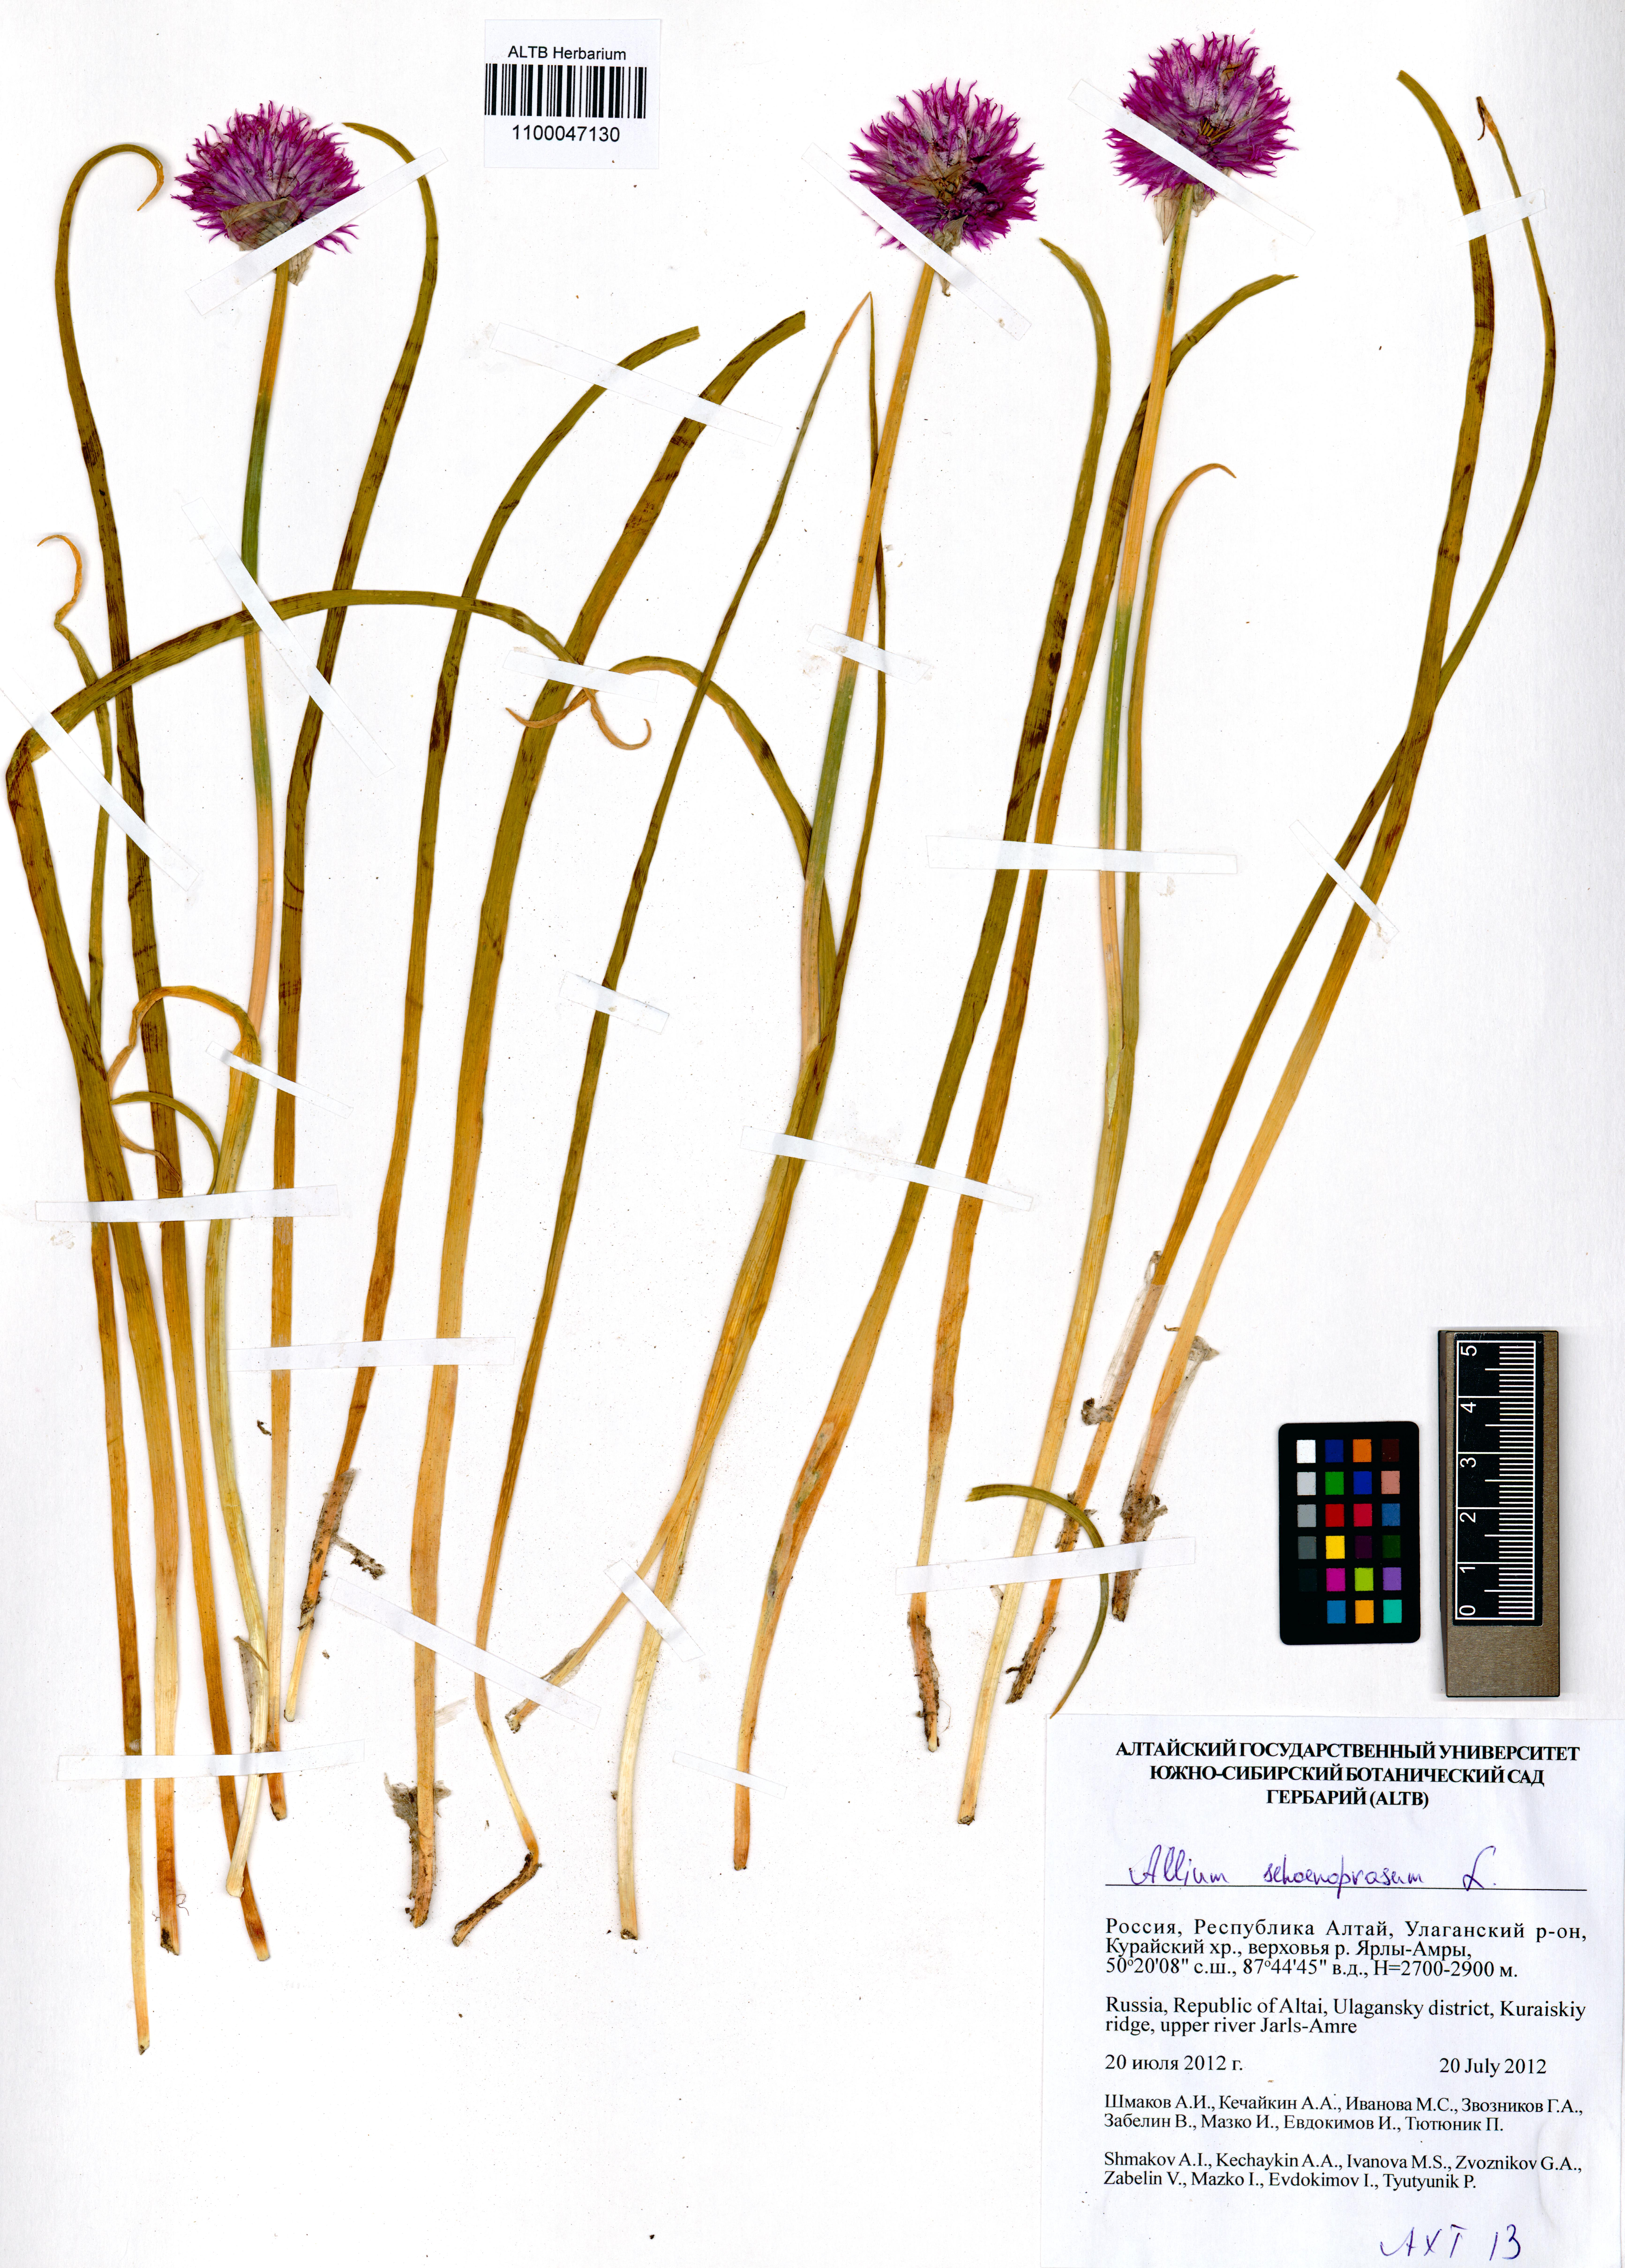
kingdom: Plantae
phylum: Tracheophyta
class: Liliopsida
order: Asparagales
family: Amaryllidaceae
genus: Allium
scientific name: Allium schoenoprasum
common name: Chives
